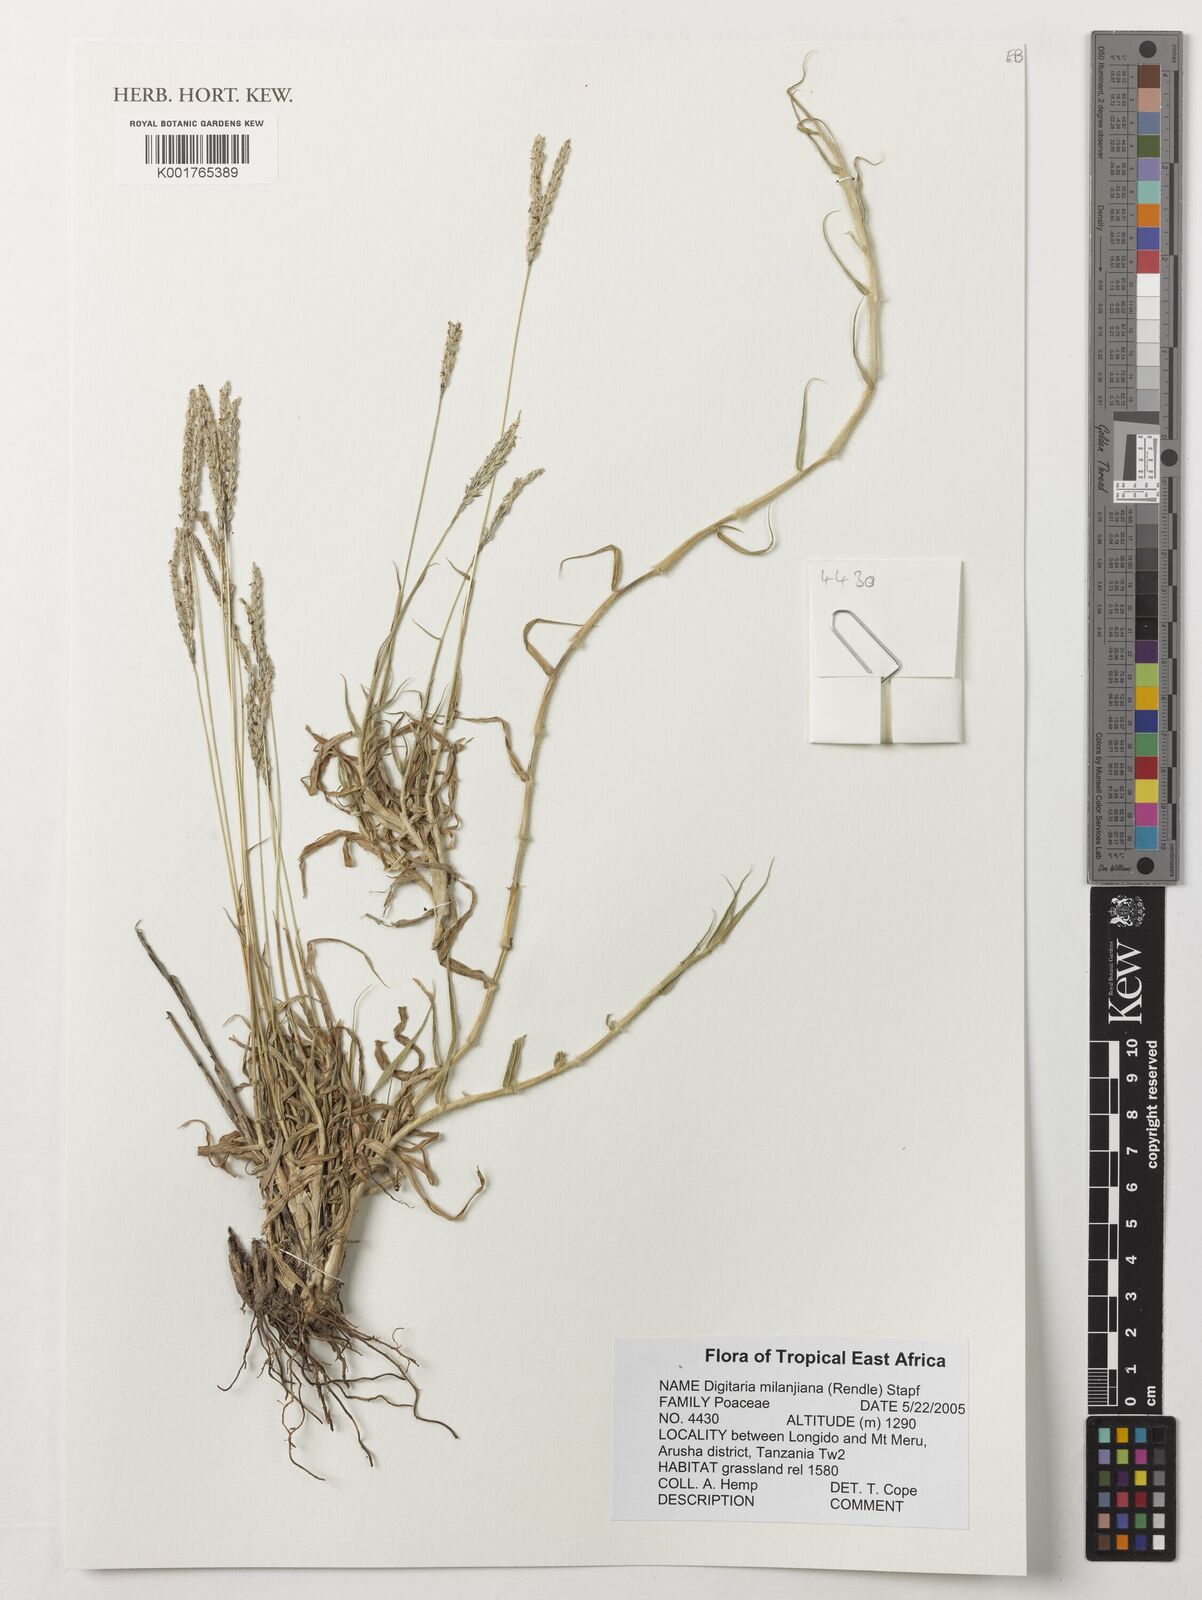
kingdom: Plantae
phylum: Tracheophyta
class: Liliopsida
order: Poales
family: Poaceae
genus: Digitaria
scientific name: Digitaria milanjiana
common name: Madagascar crabgrass
